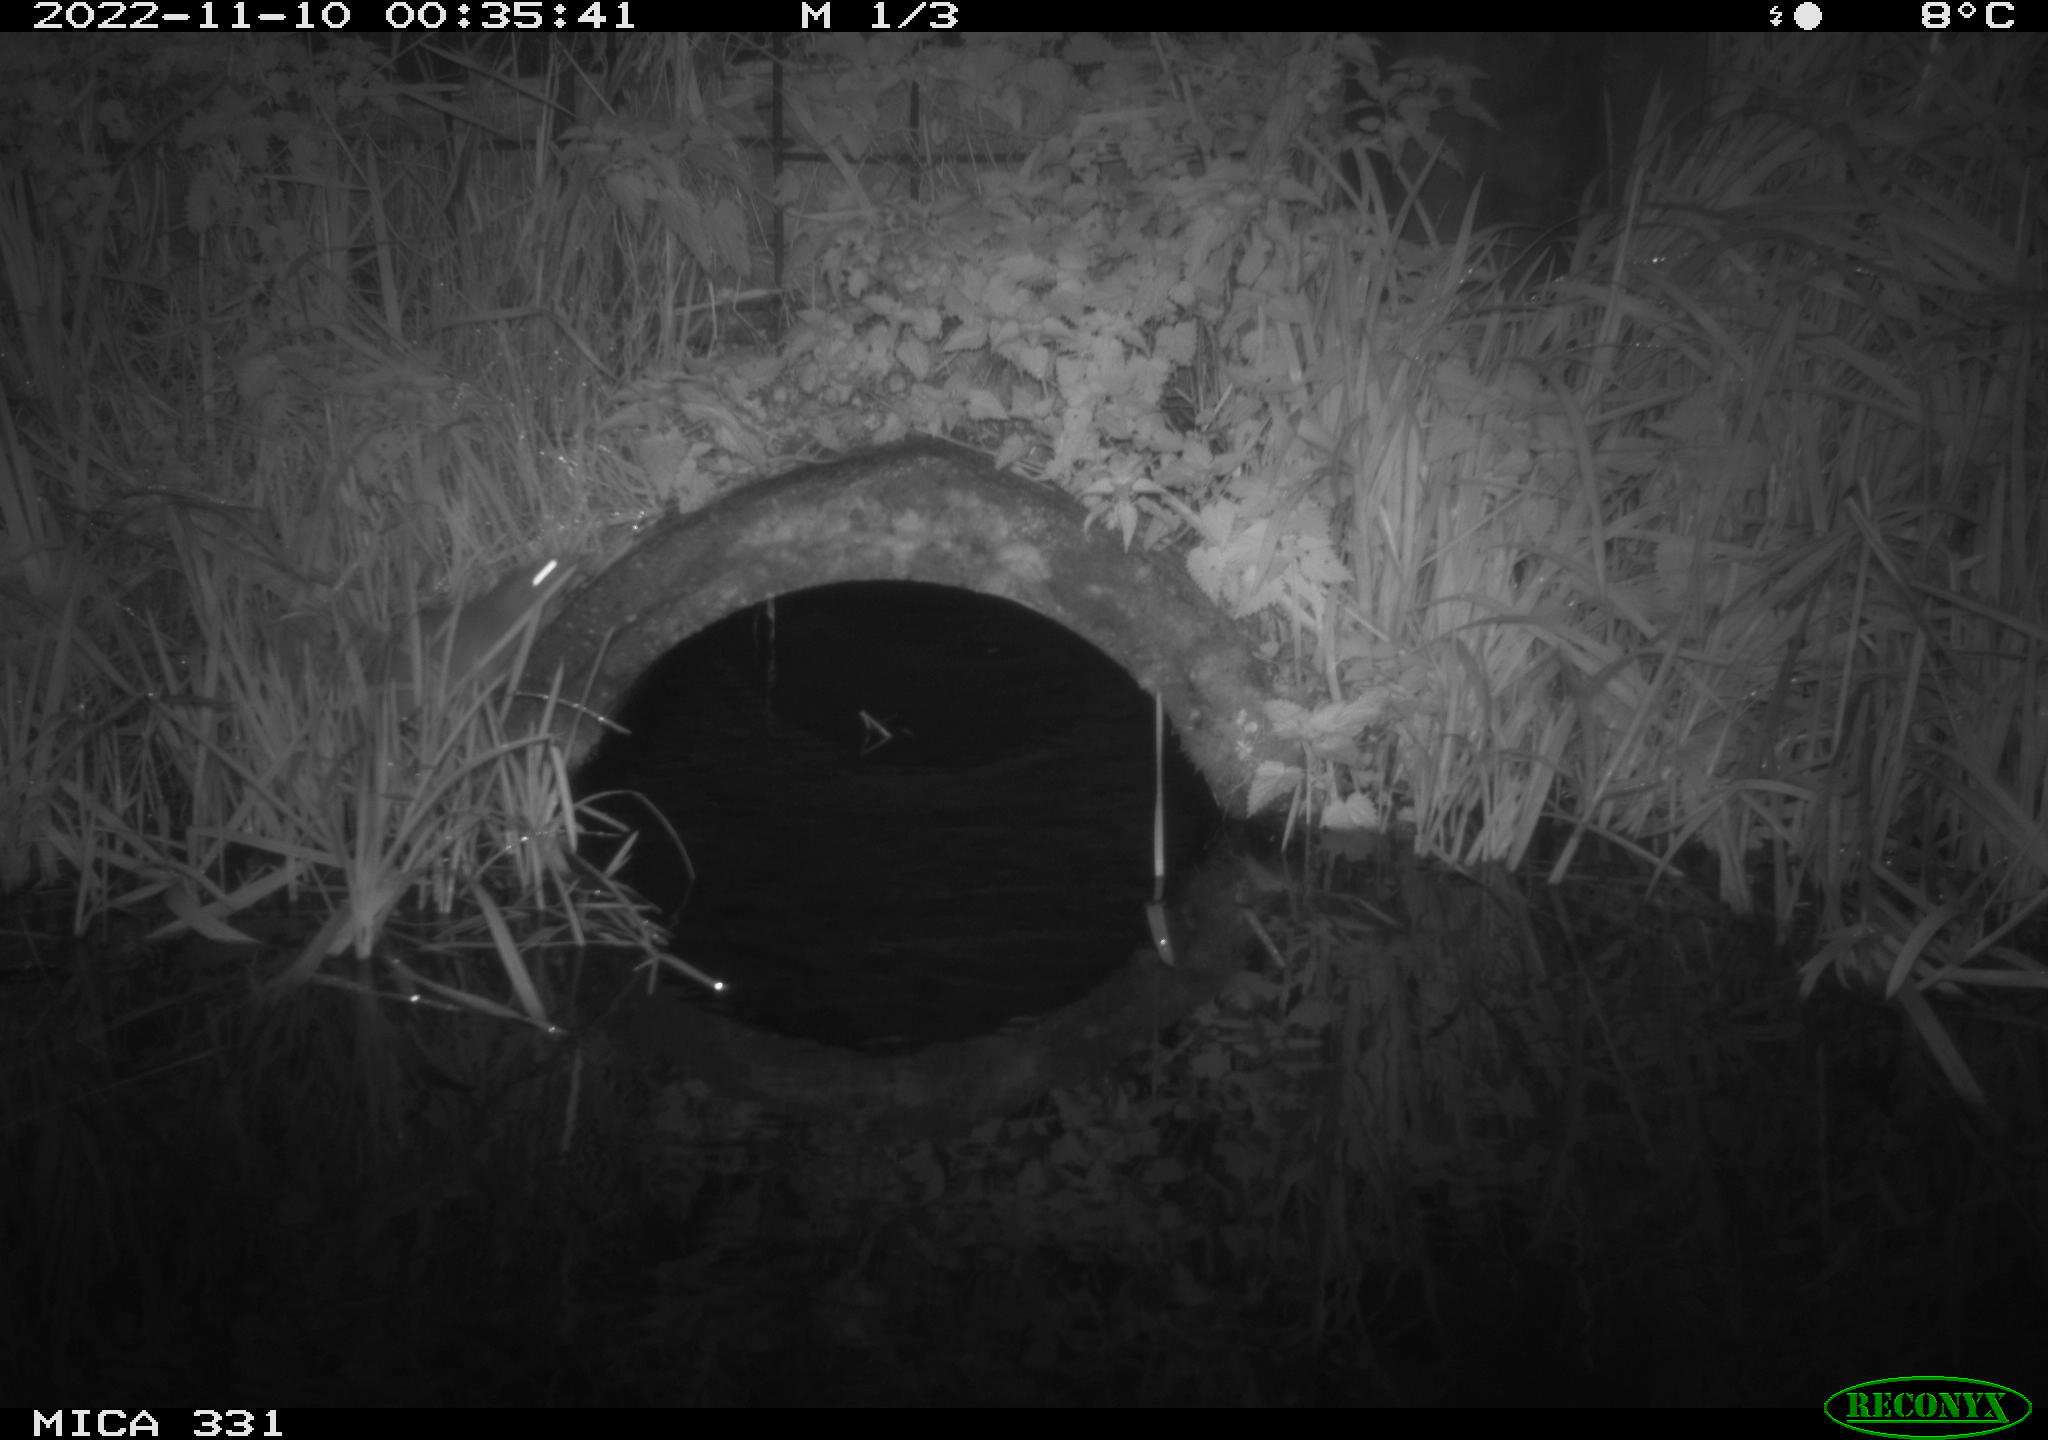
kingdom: Animalia
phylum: Chordata
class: Mammalia
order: Rodentia
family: Muridae
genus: Rattus
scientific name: Rattus norvegicus
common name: Brown rat
